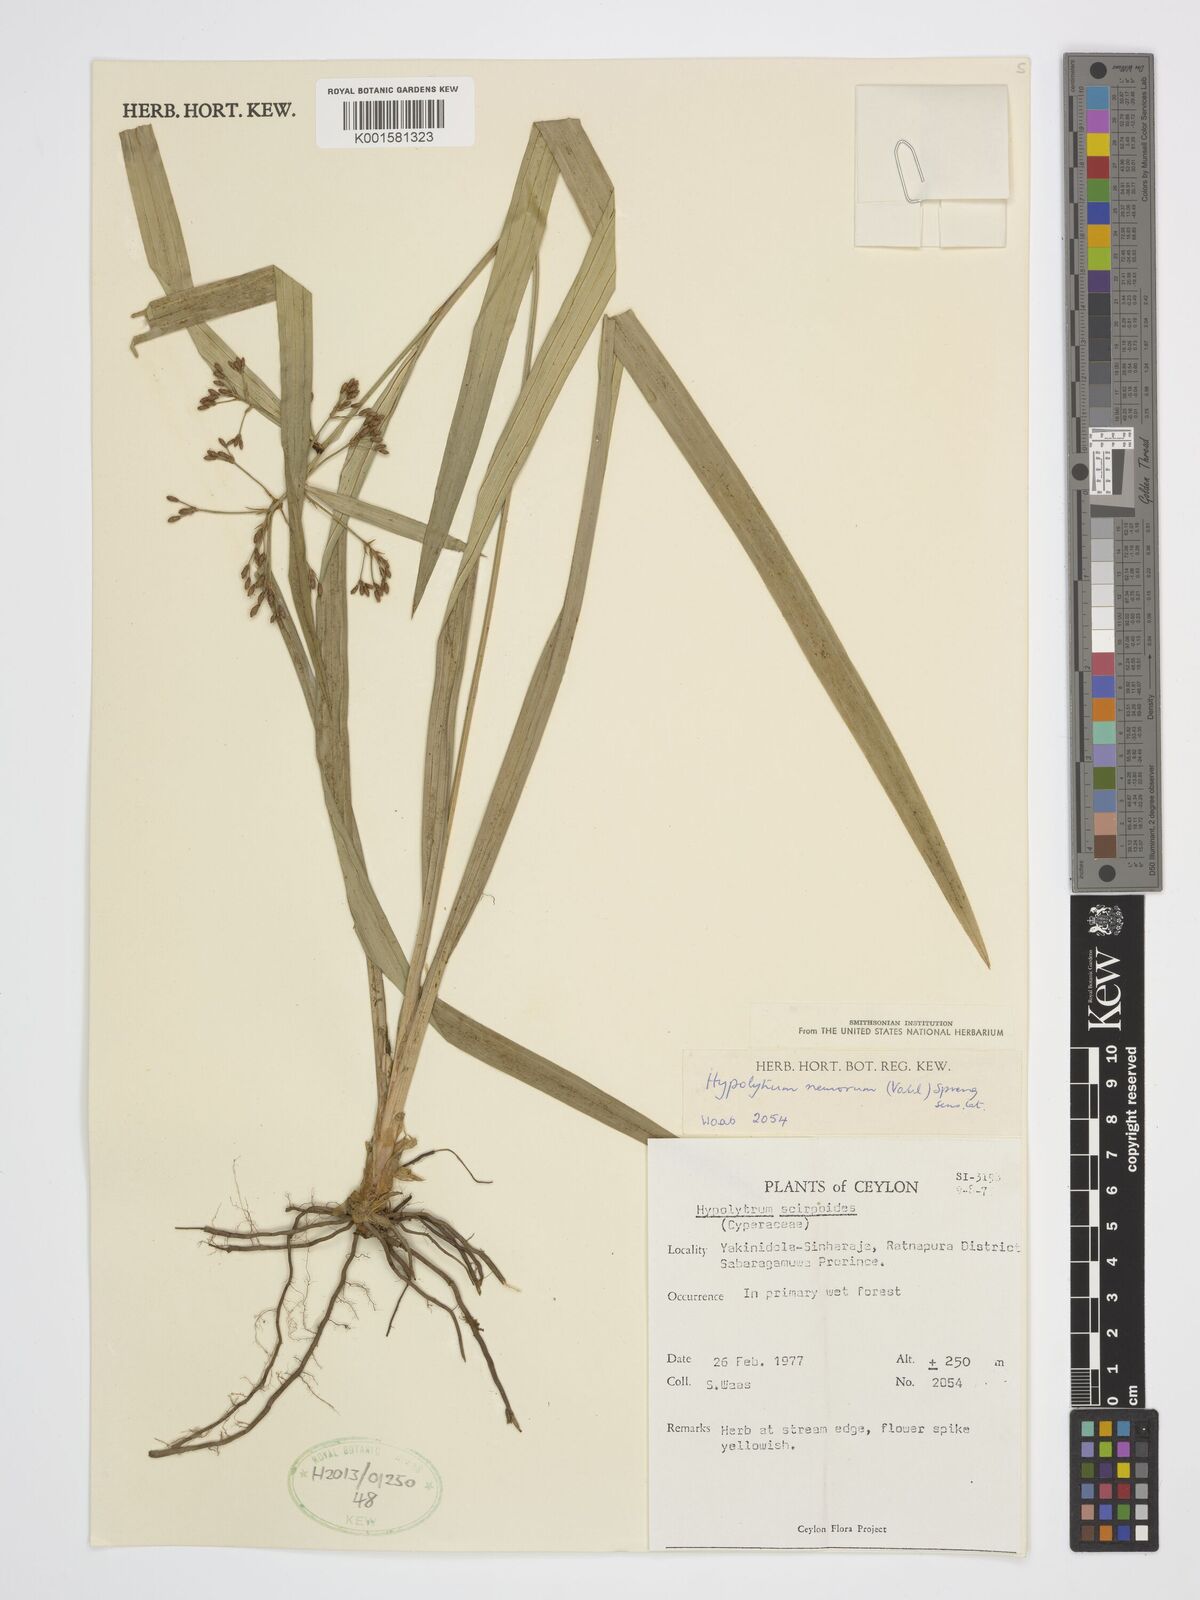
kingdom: Plantae
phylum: Tracheophyta
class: Liliopsida
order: Poales
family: Cyperaceae
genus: Hypolytrum
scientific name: Hypolytrum nemorum
